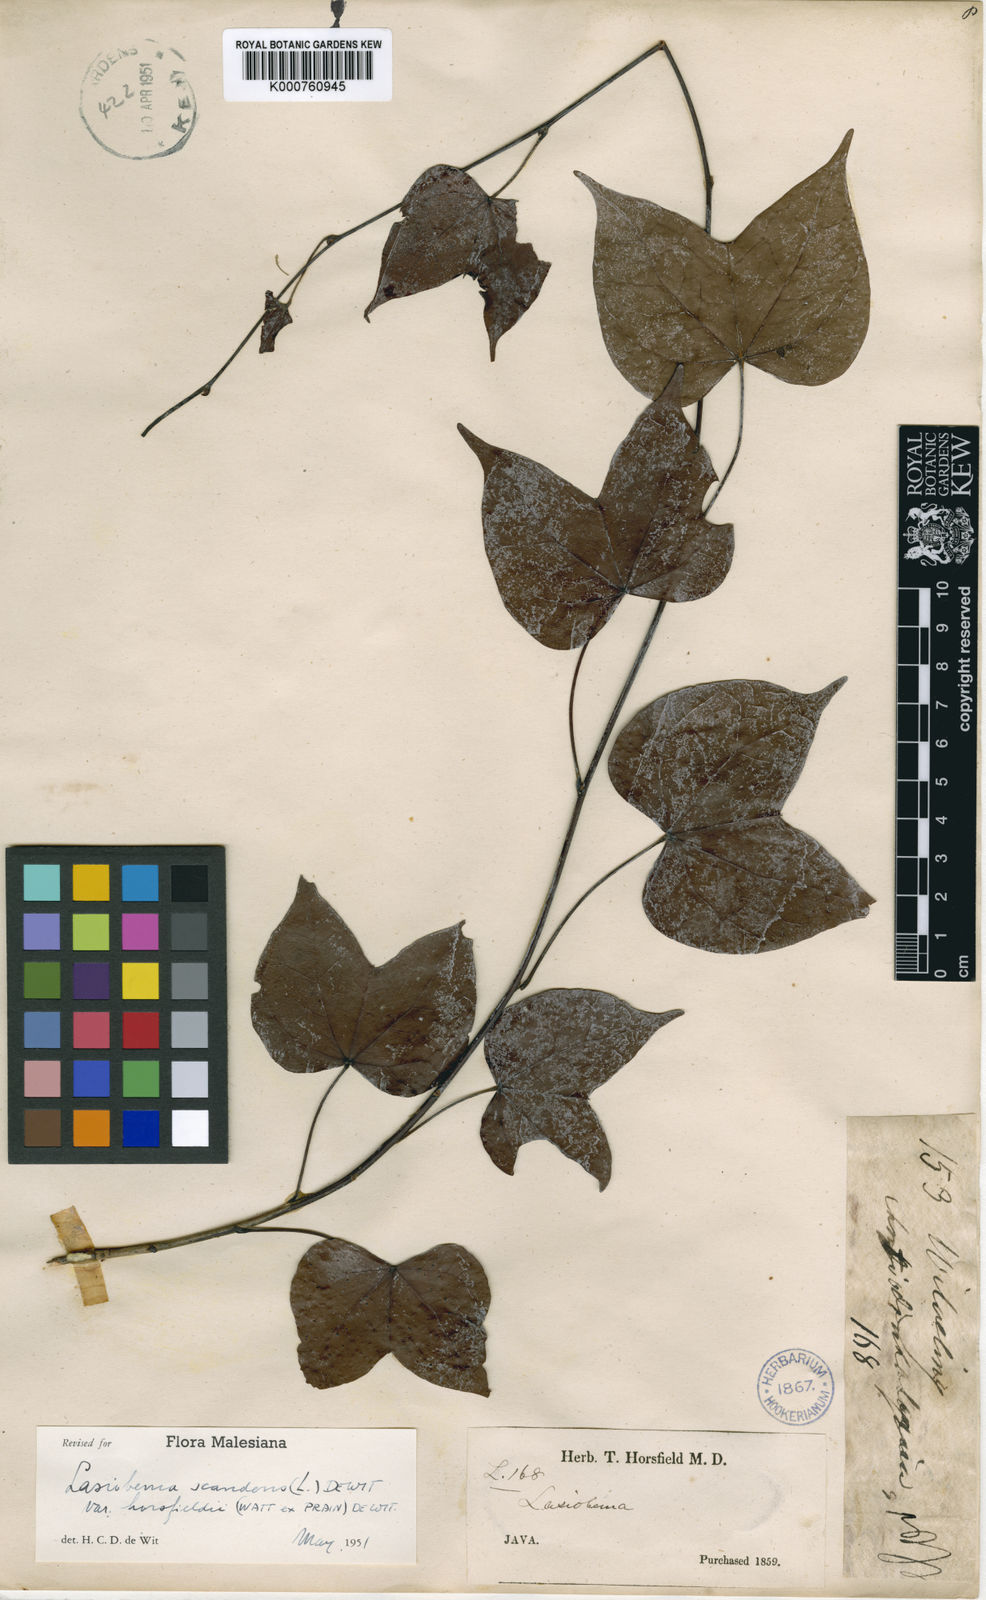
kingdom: Plantae
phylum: Tracheophyta
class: Magnoliopsida
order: Fabales
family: Fabaceae
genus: Phanera
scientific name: Phanera scandens
